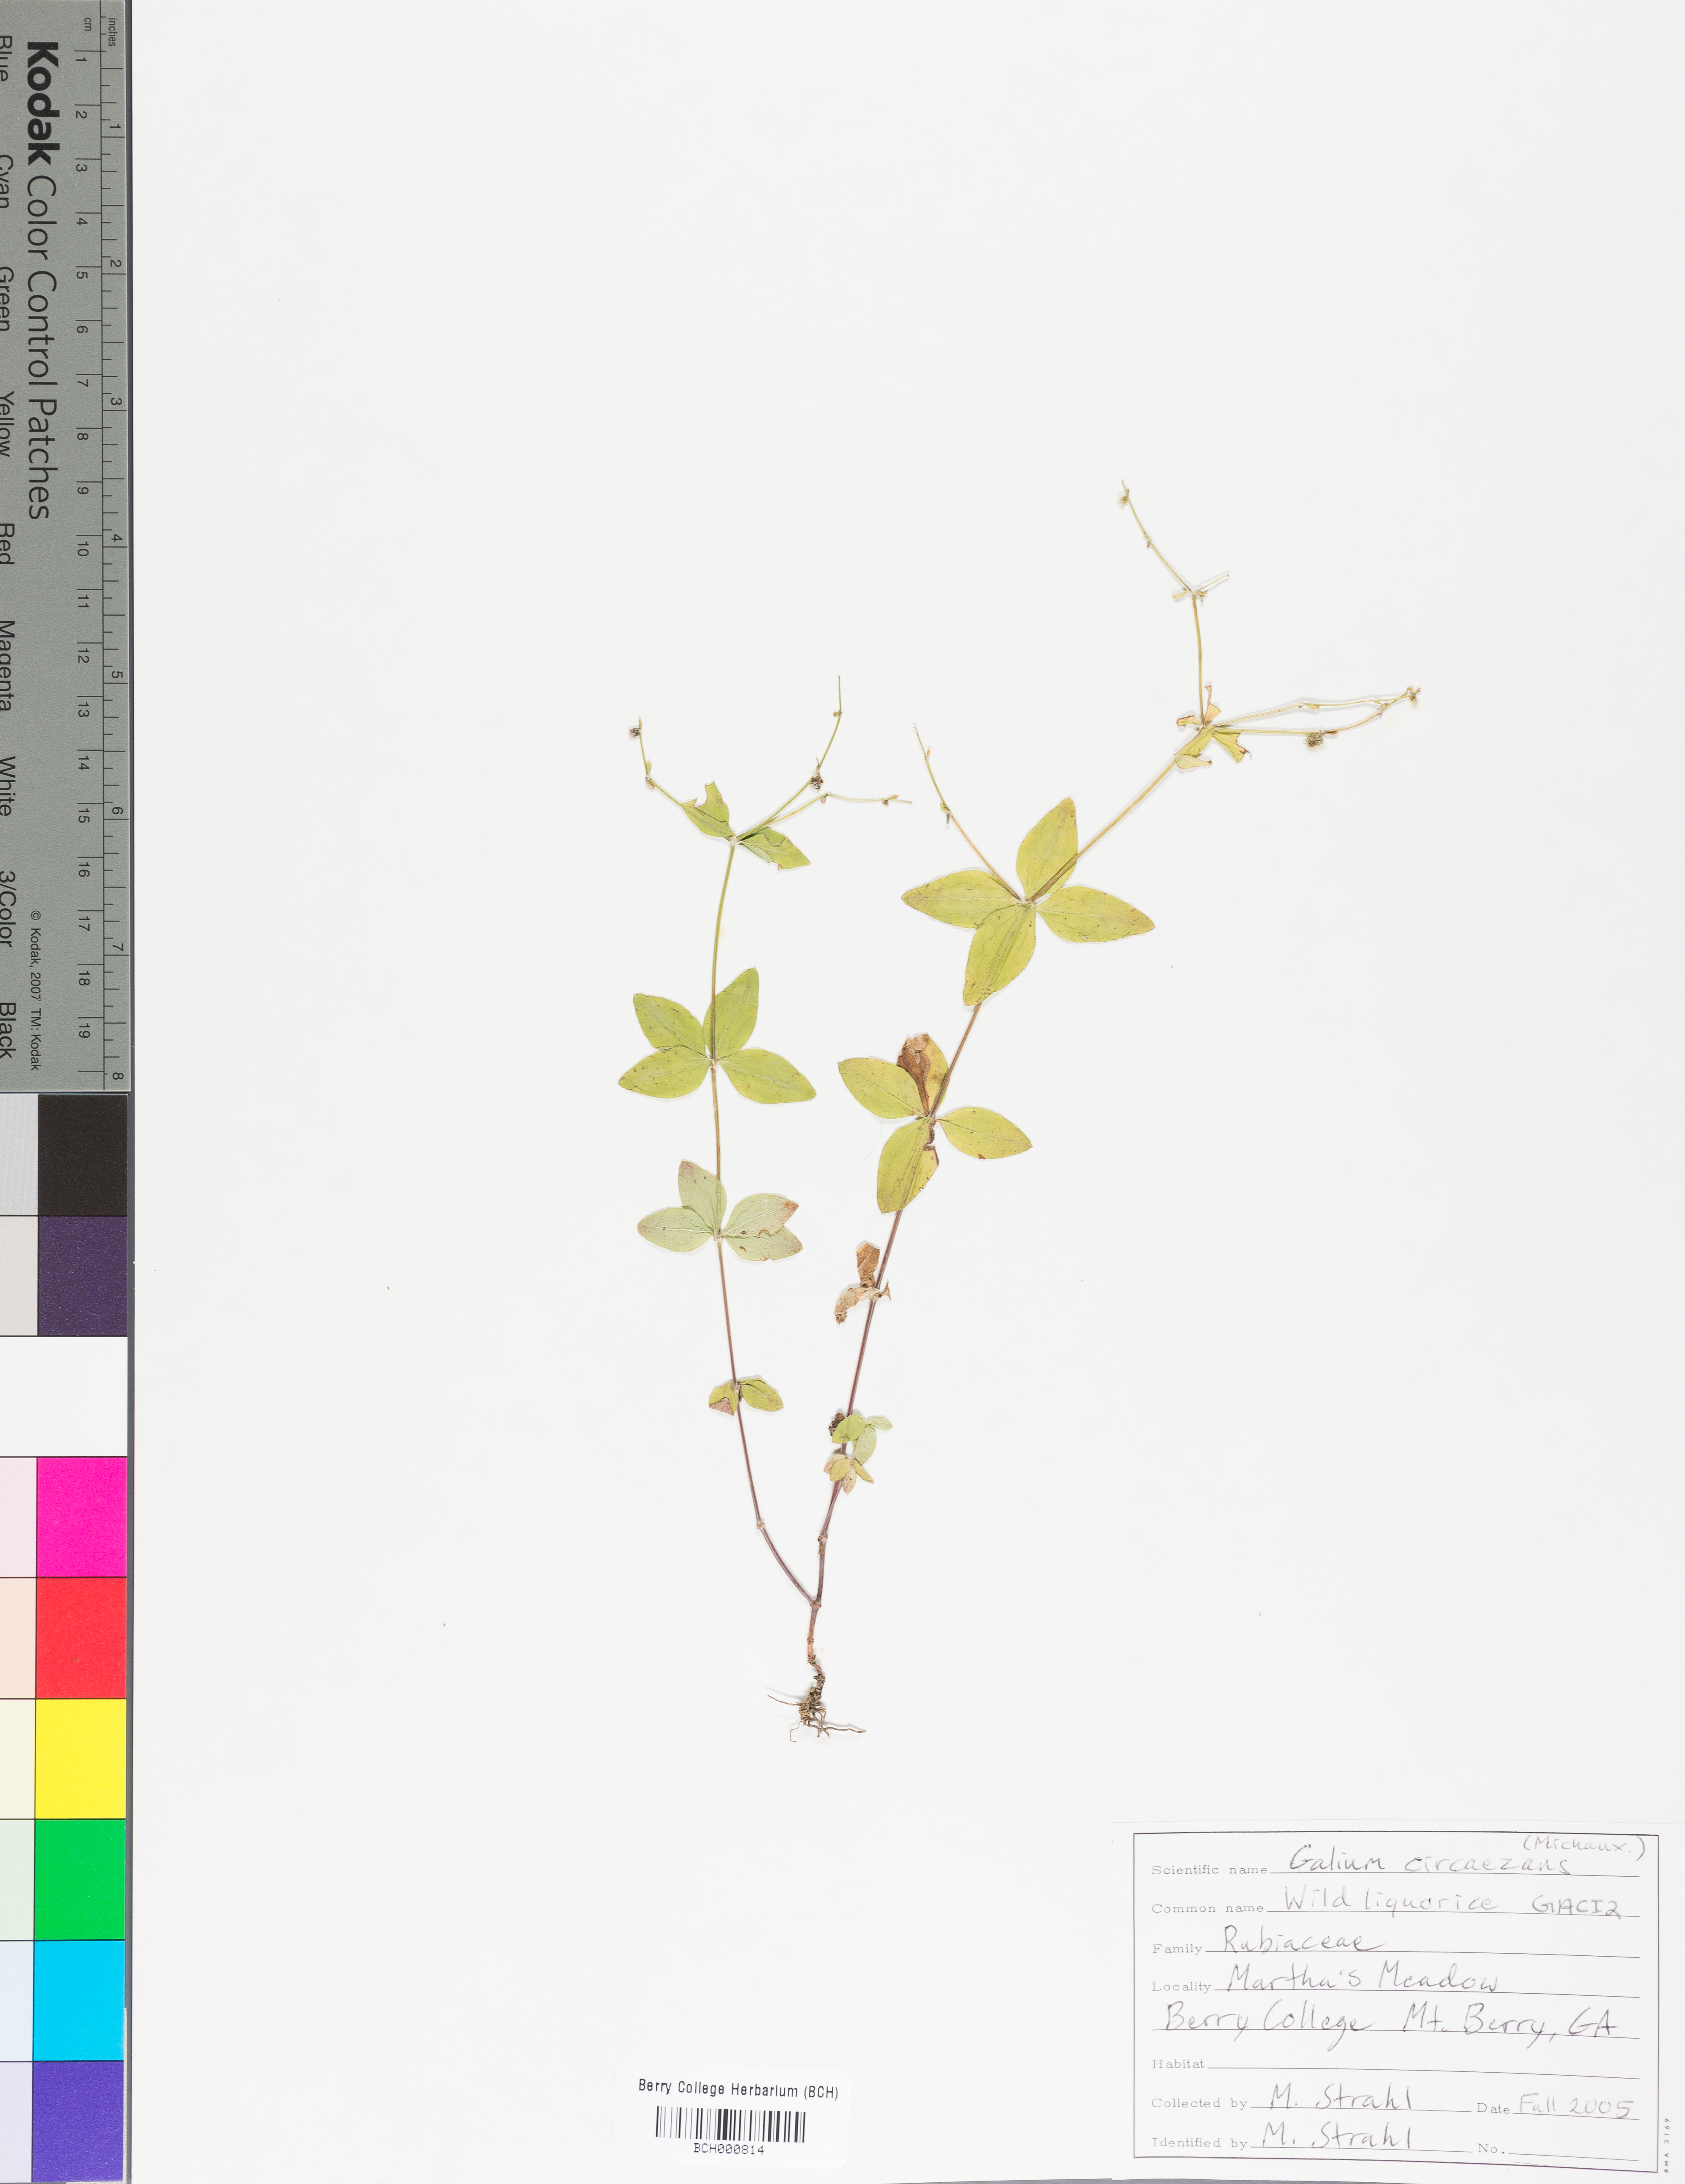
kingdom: Plantae
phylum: Tracheophyta
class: Magnoliopsida
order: Gentianales
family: Rubiaceae
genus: Galium
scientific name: Galium circaezans
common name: Forest bedstraw
